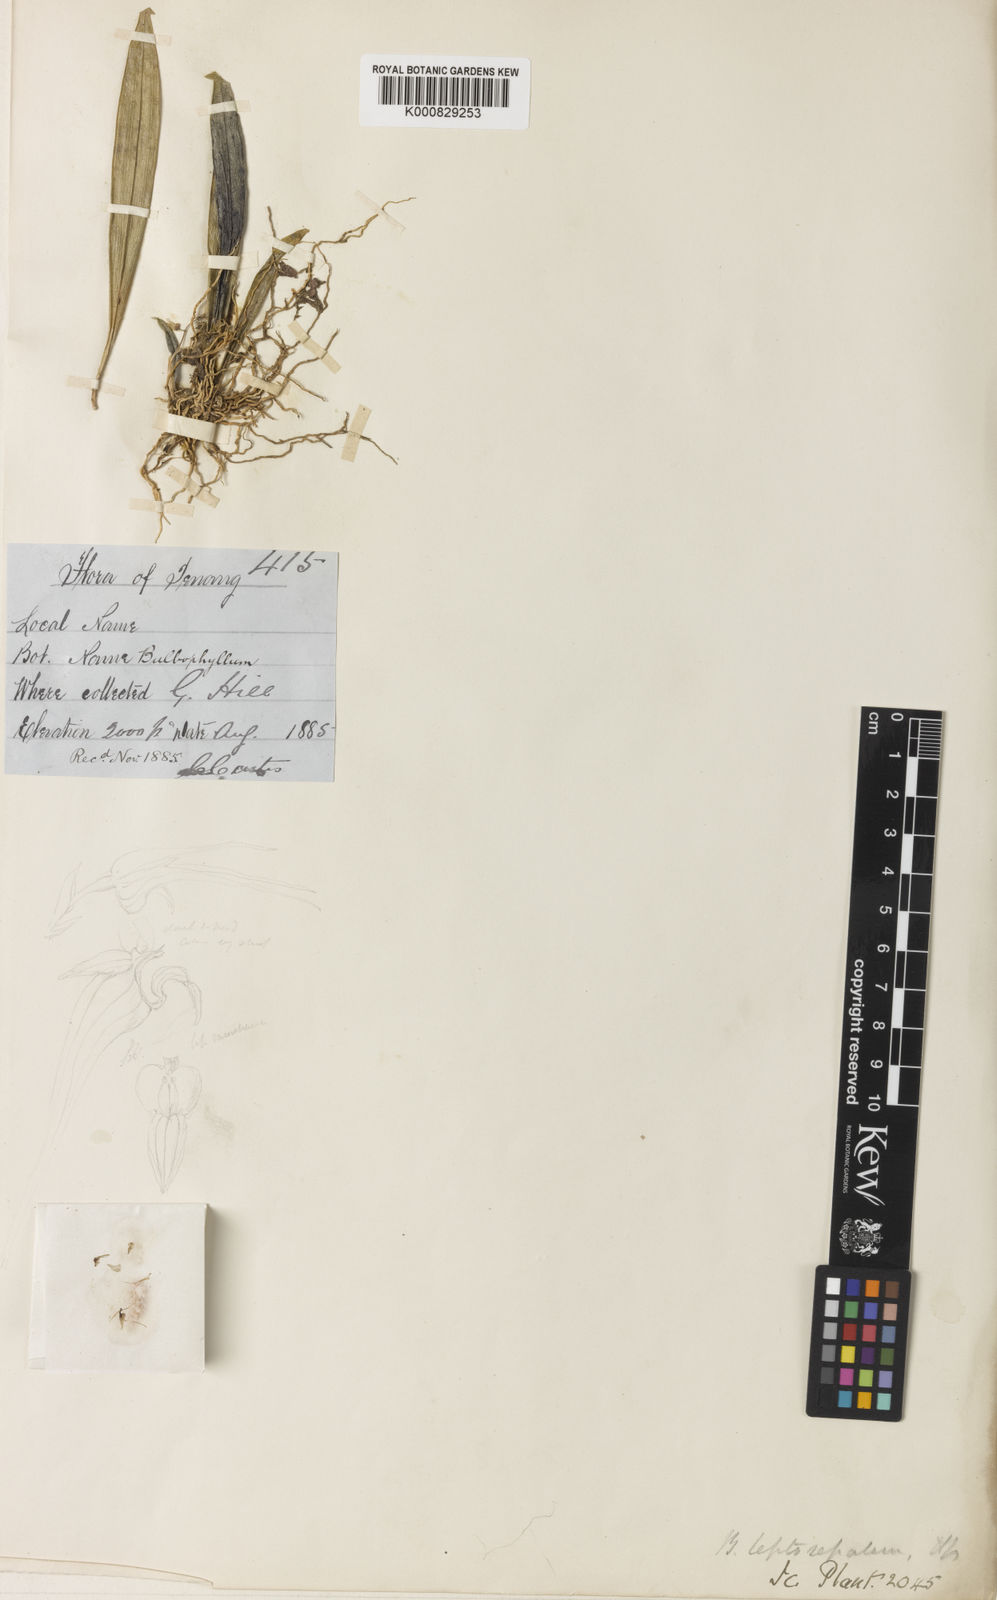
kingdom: Plantae
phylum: Tracheophyta
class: Liliopsida
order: Asparagales
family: Orchidaceae
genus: Bulbophyllum
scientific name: Bulbophyllum leptosepalum
